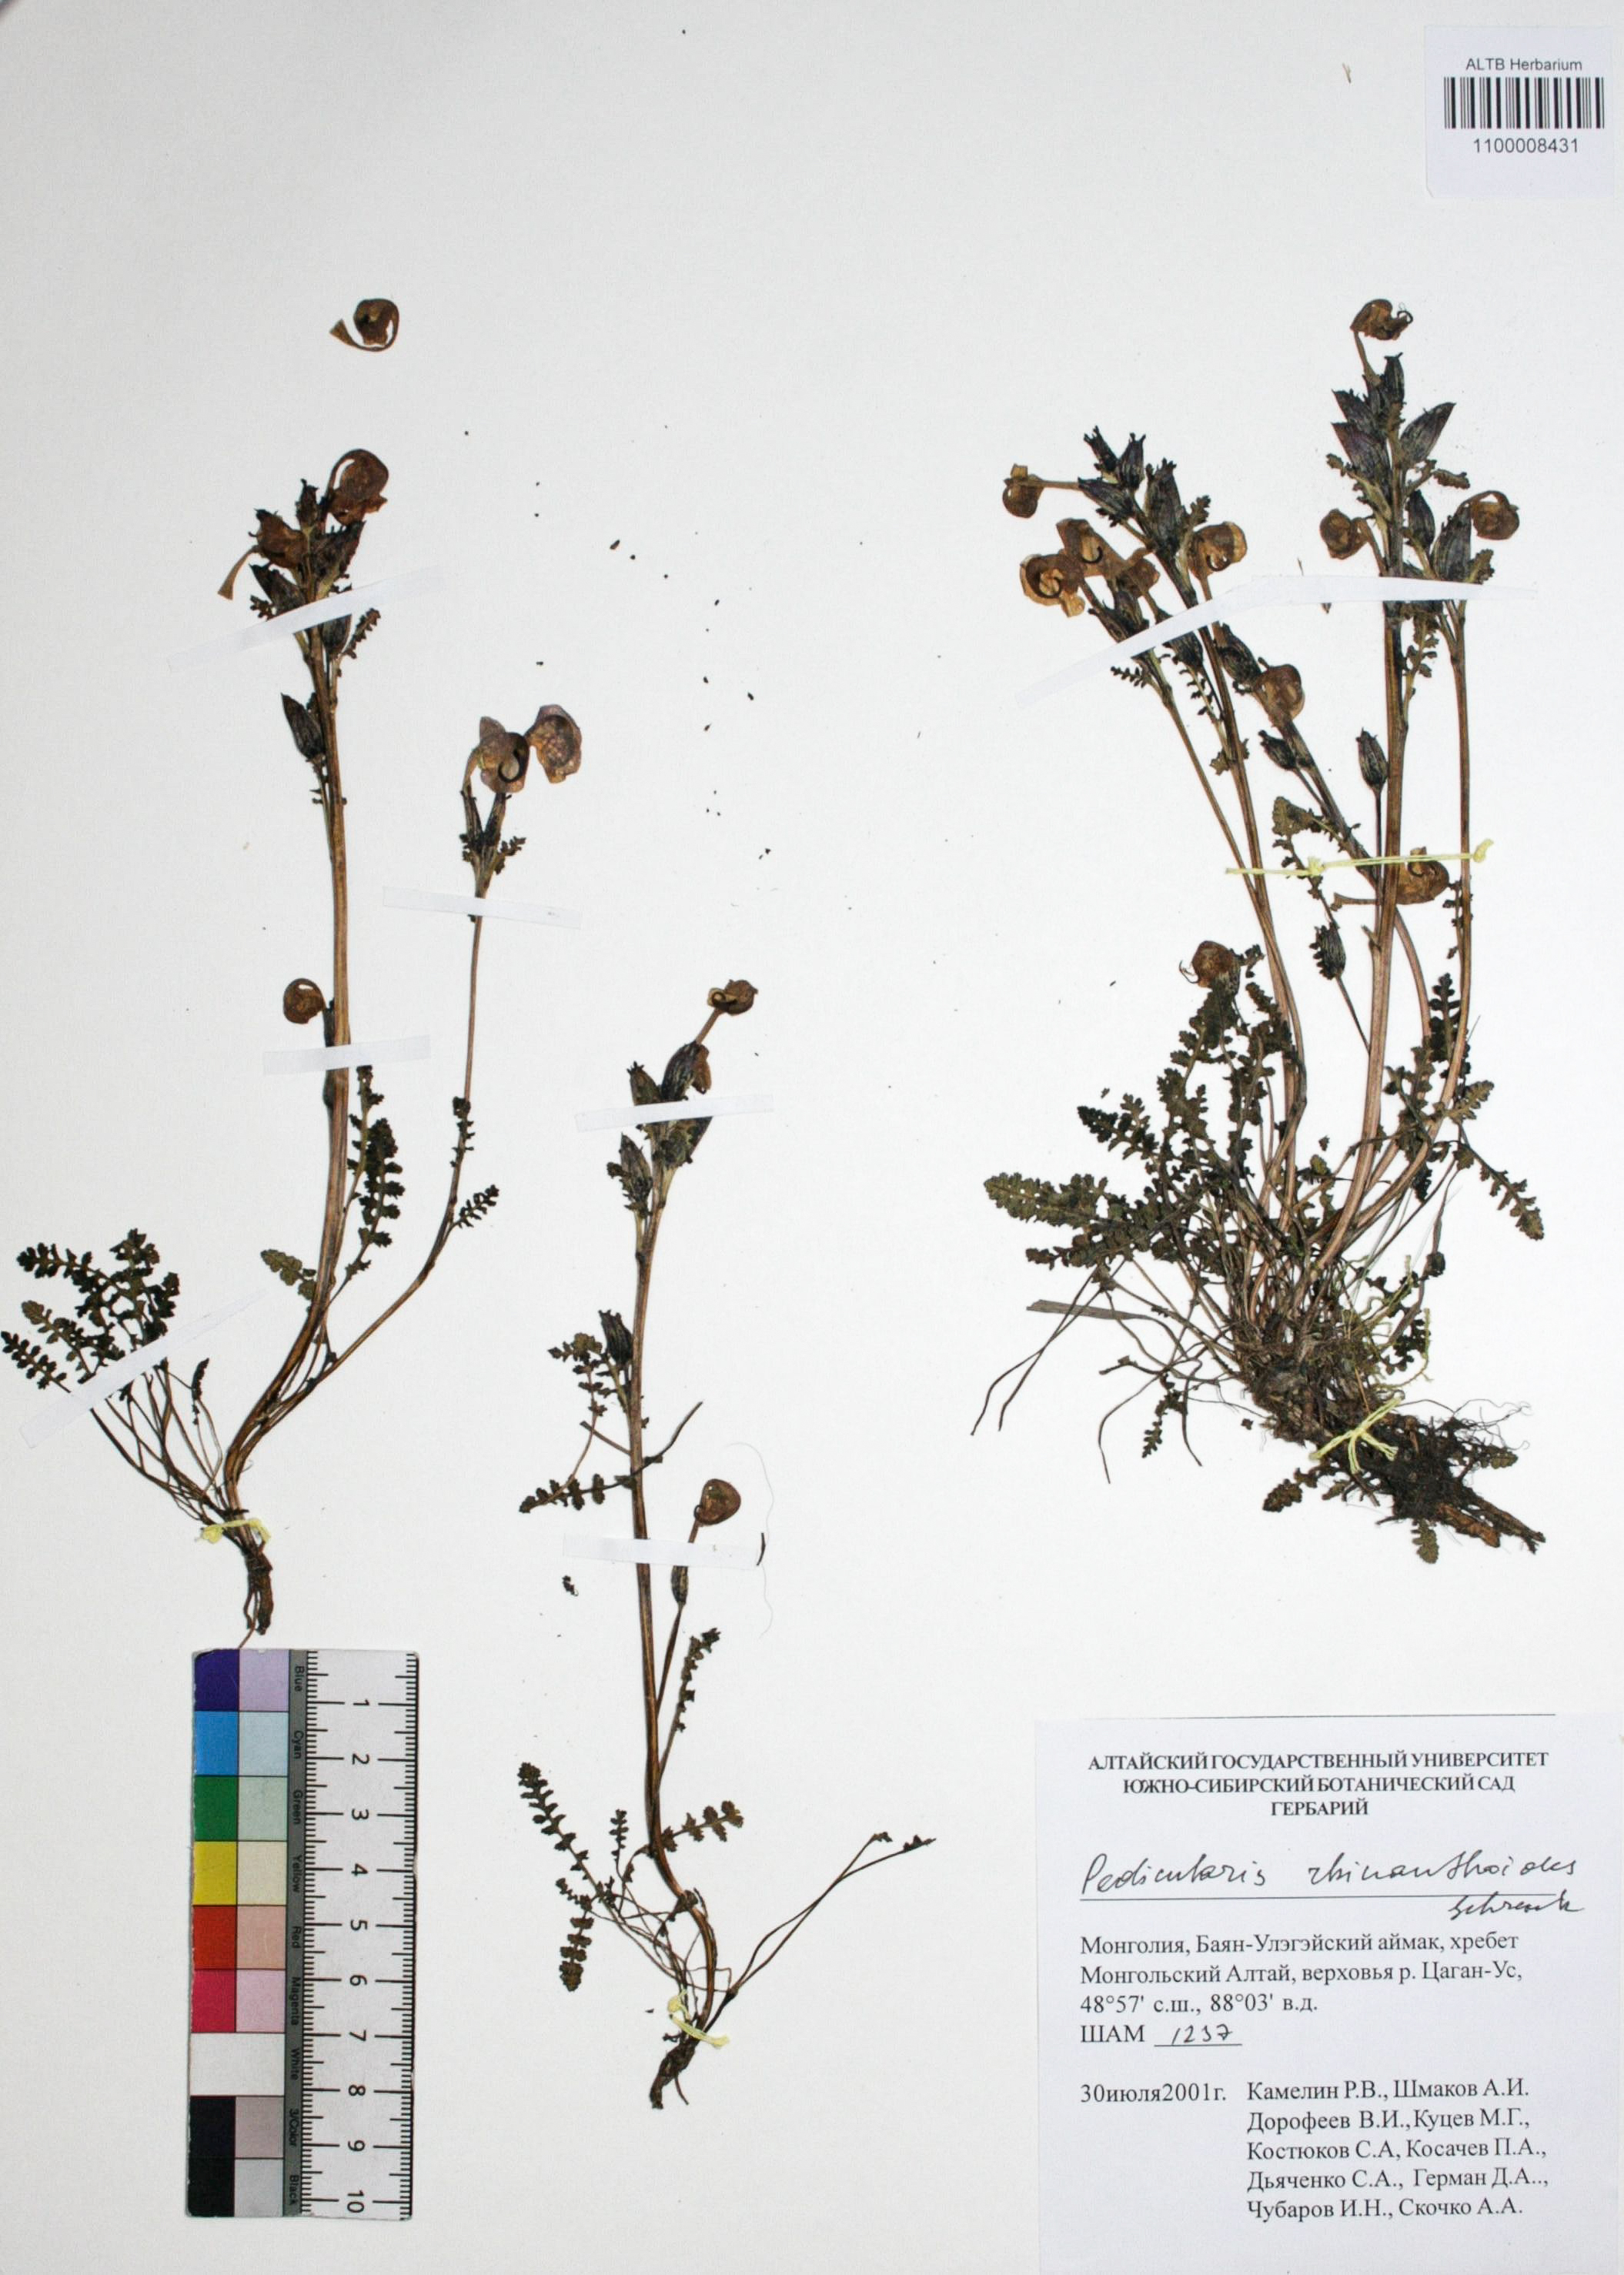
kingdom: Plantae
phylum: Tracheophyta
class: Magnoliopsida
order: Lamiales
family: Orobanchaceae
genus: Pedicularis
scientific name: Pedicularis rhinanthoides
